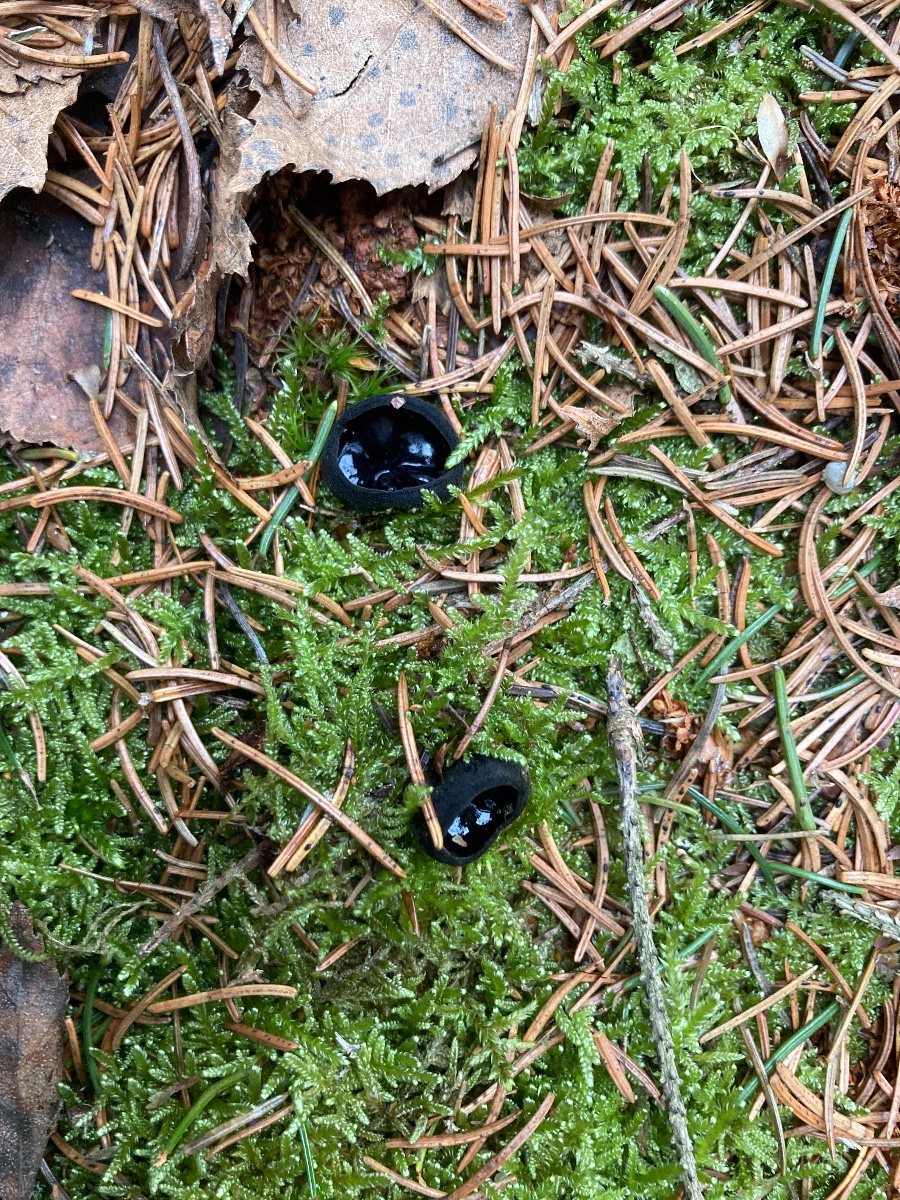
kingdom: Fungi
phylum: Ascomycota
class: Pezizomycetes
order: Pezizales
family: Sarcosomataceae
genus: Pseudoplectania
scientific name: Pseudoplectania nigrella
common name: almindelig sortbæger
